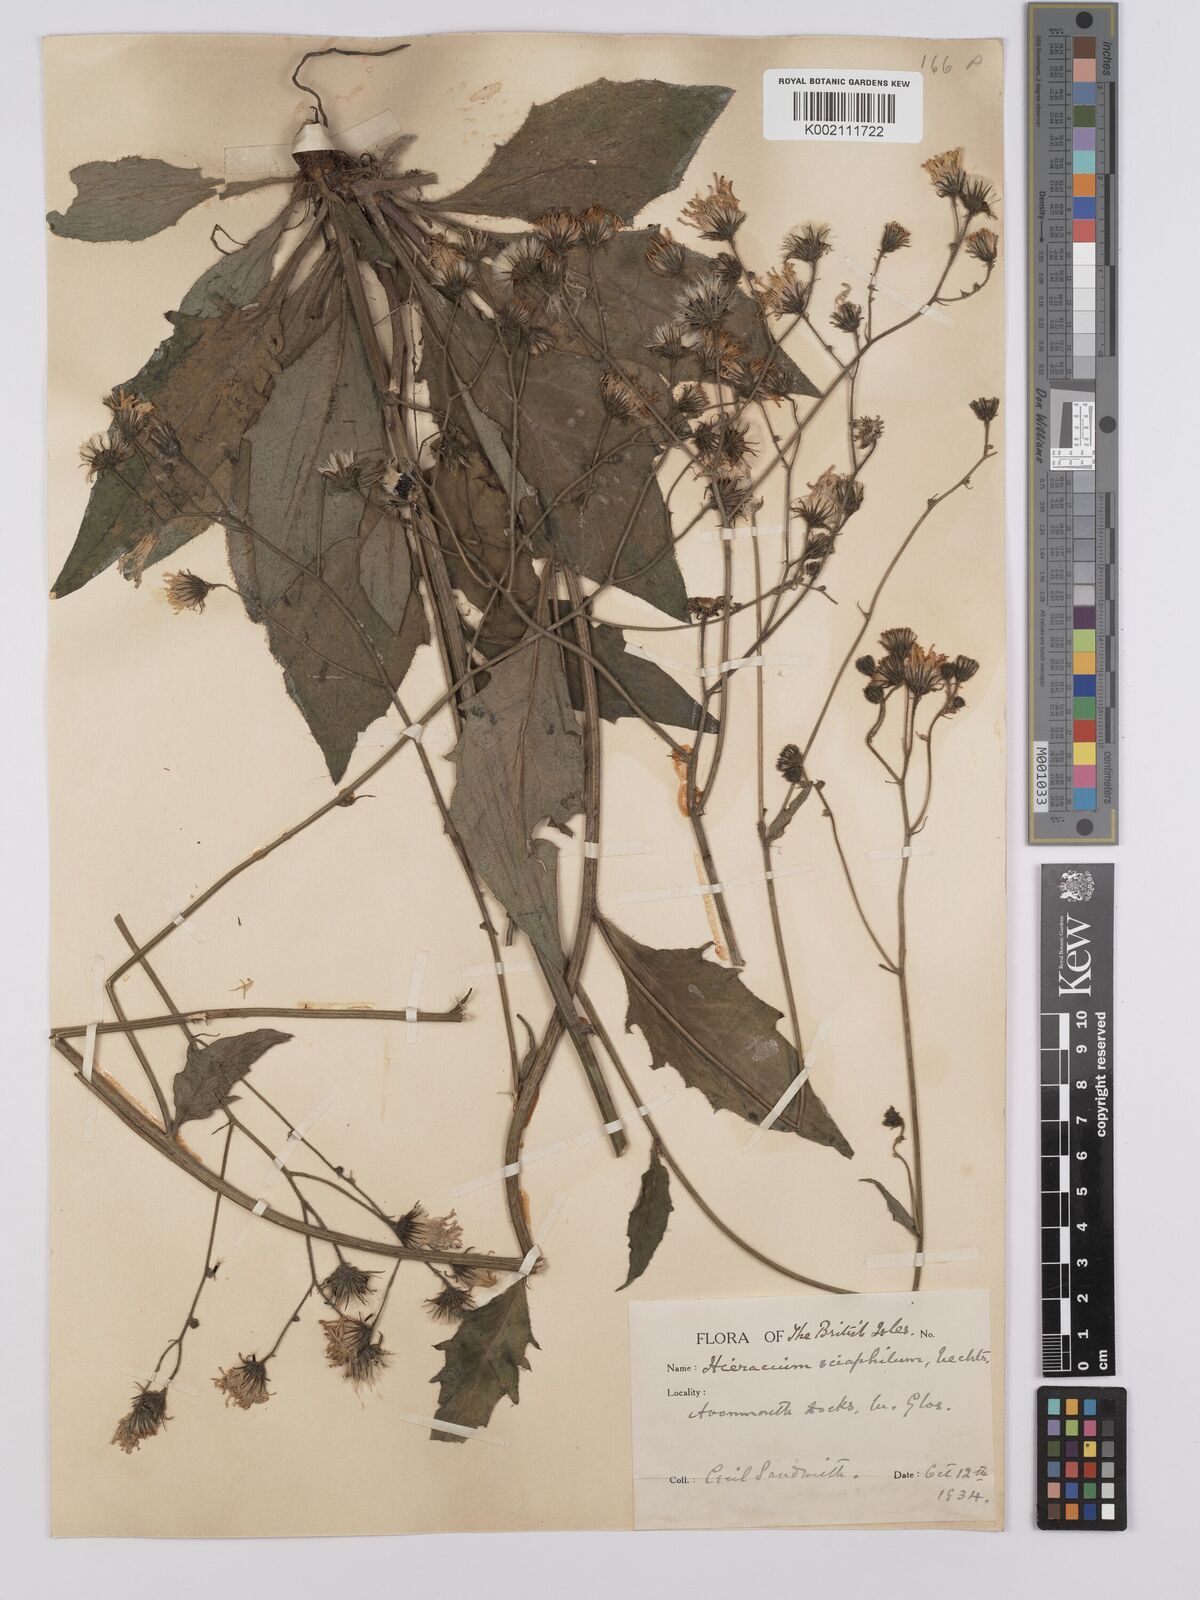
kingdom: Plantae
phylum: Tracheophyta
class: Magnoliopsida
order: Asterales
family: Asteraceae
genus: Hieracium
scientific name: Hieracium
